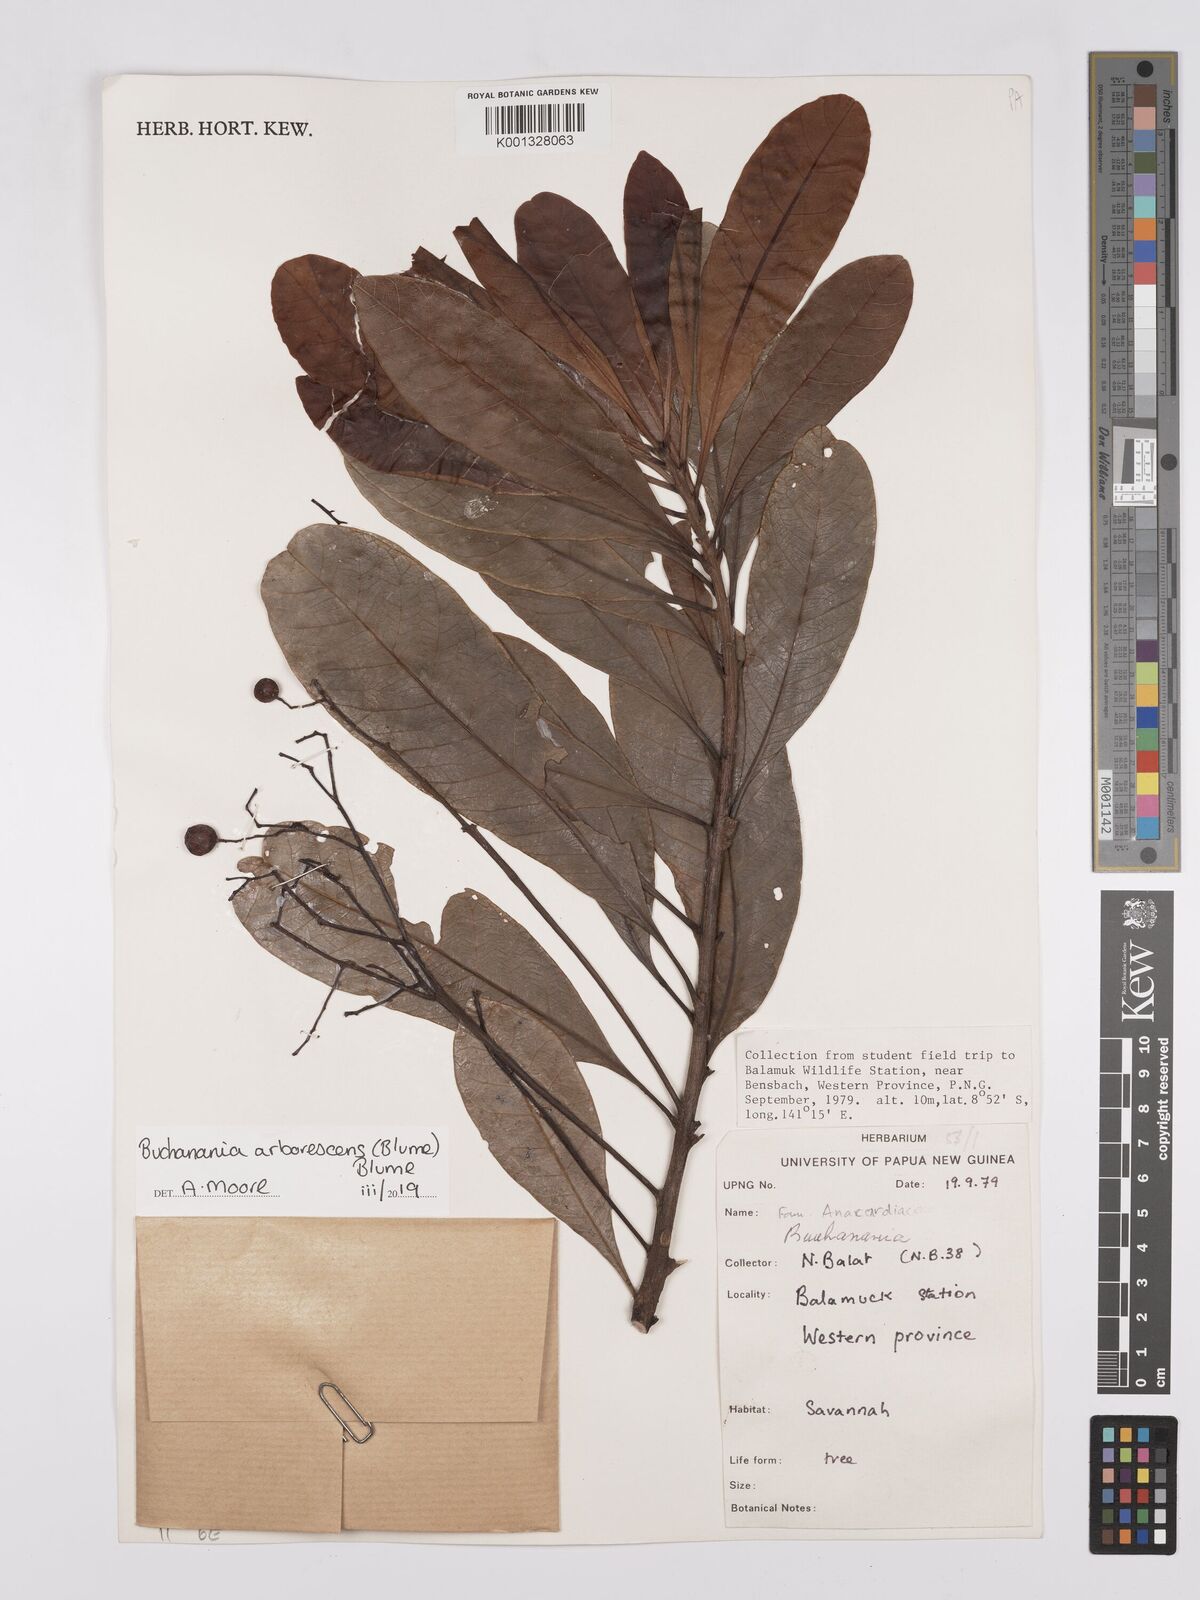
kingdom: Plantae
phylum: Tracheophyta
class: Magnoliopsida
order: Sapindales
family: Anacardiaceae
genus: Buchanania
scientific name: Buchanania arborescens
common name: Sparrow’s mango
